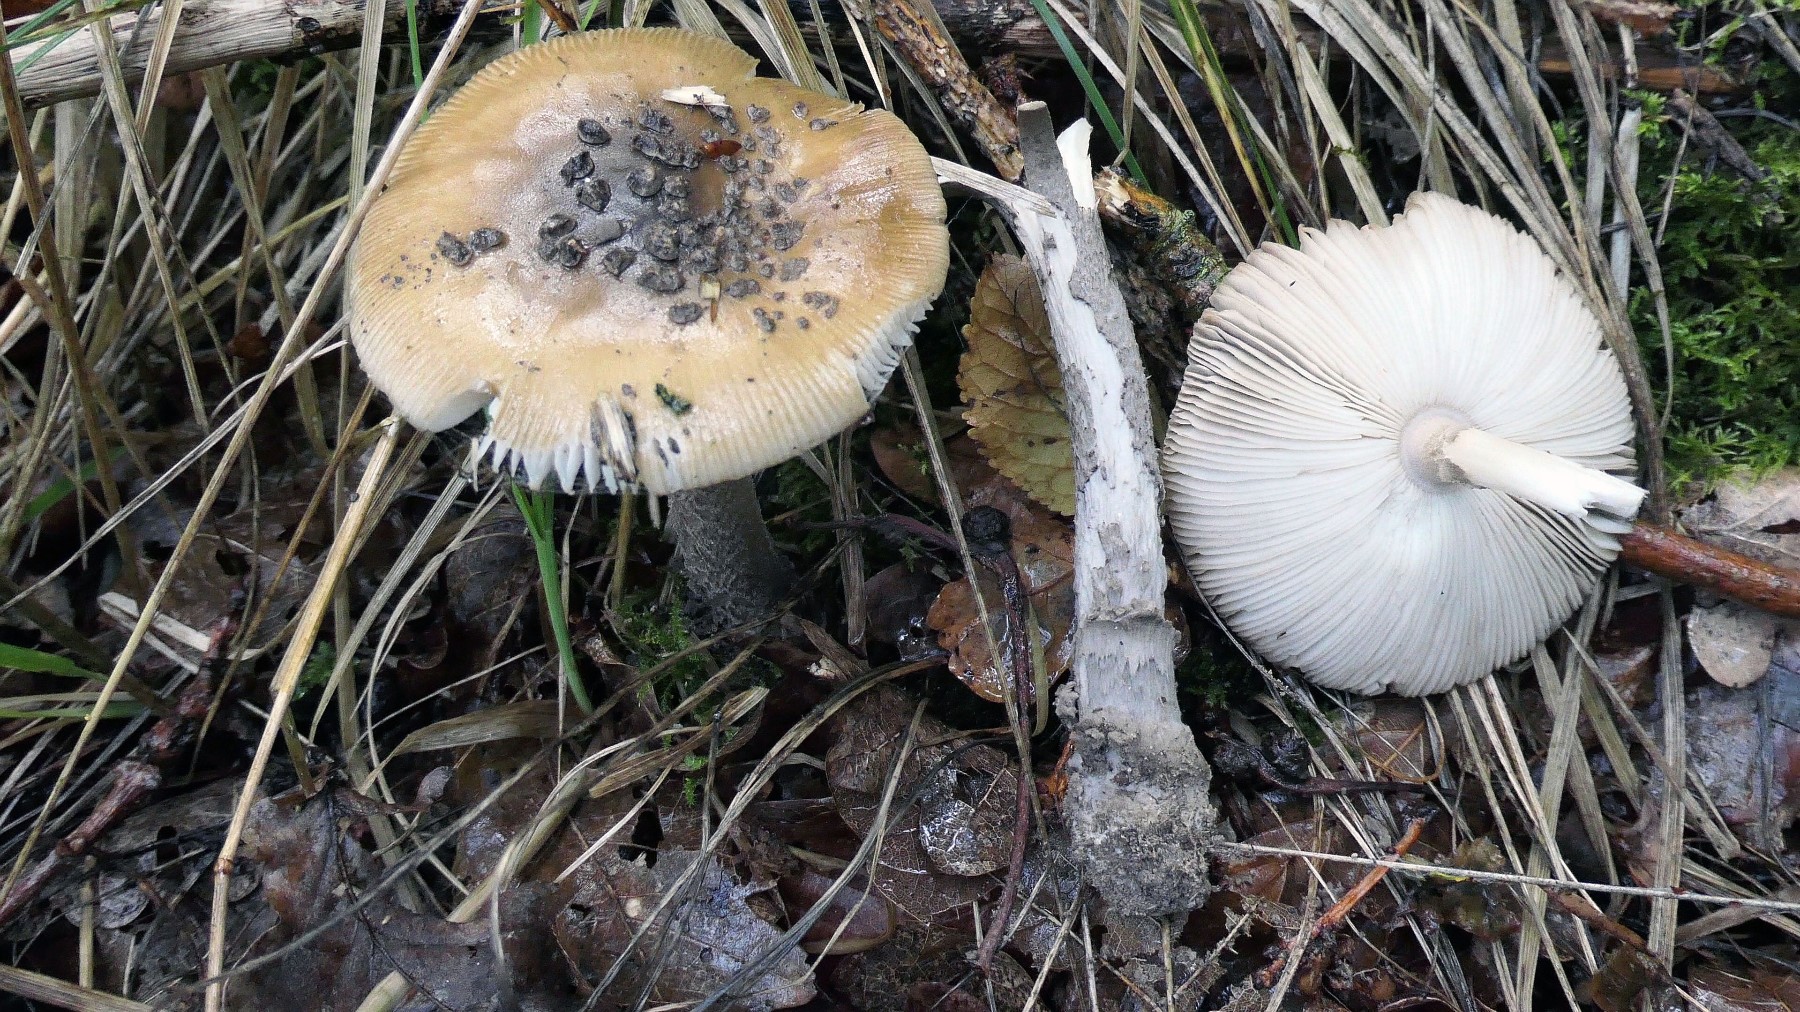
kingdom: Fungi
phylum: Basidiomycota
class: Agaricomycetes
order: Agaricales
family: Amanitaceae
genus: Amanita
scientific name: Amanita ceciliae
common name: stor kam-fluesvamp
